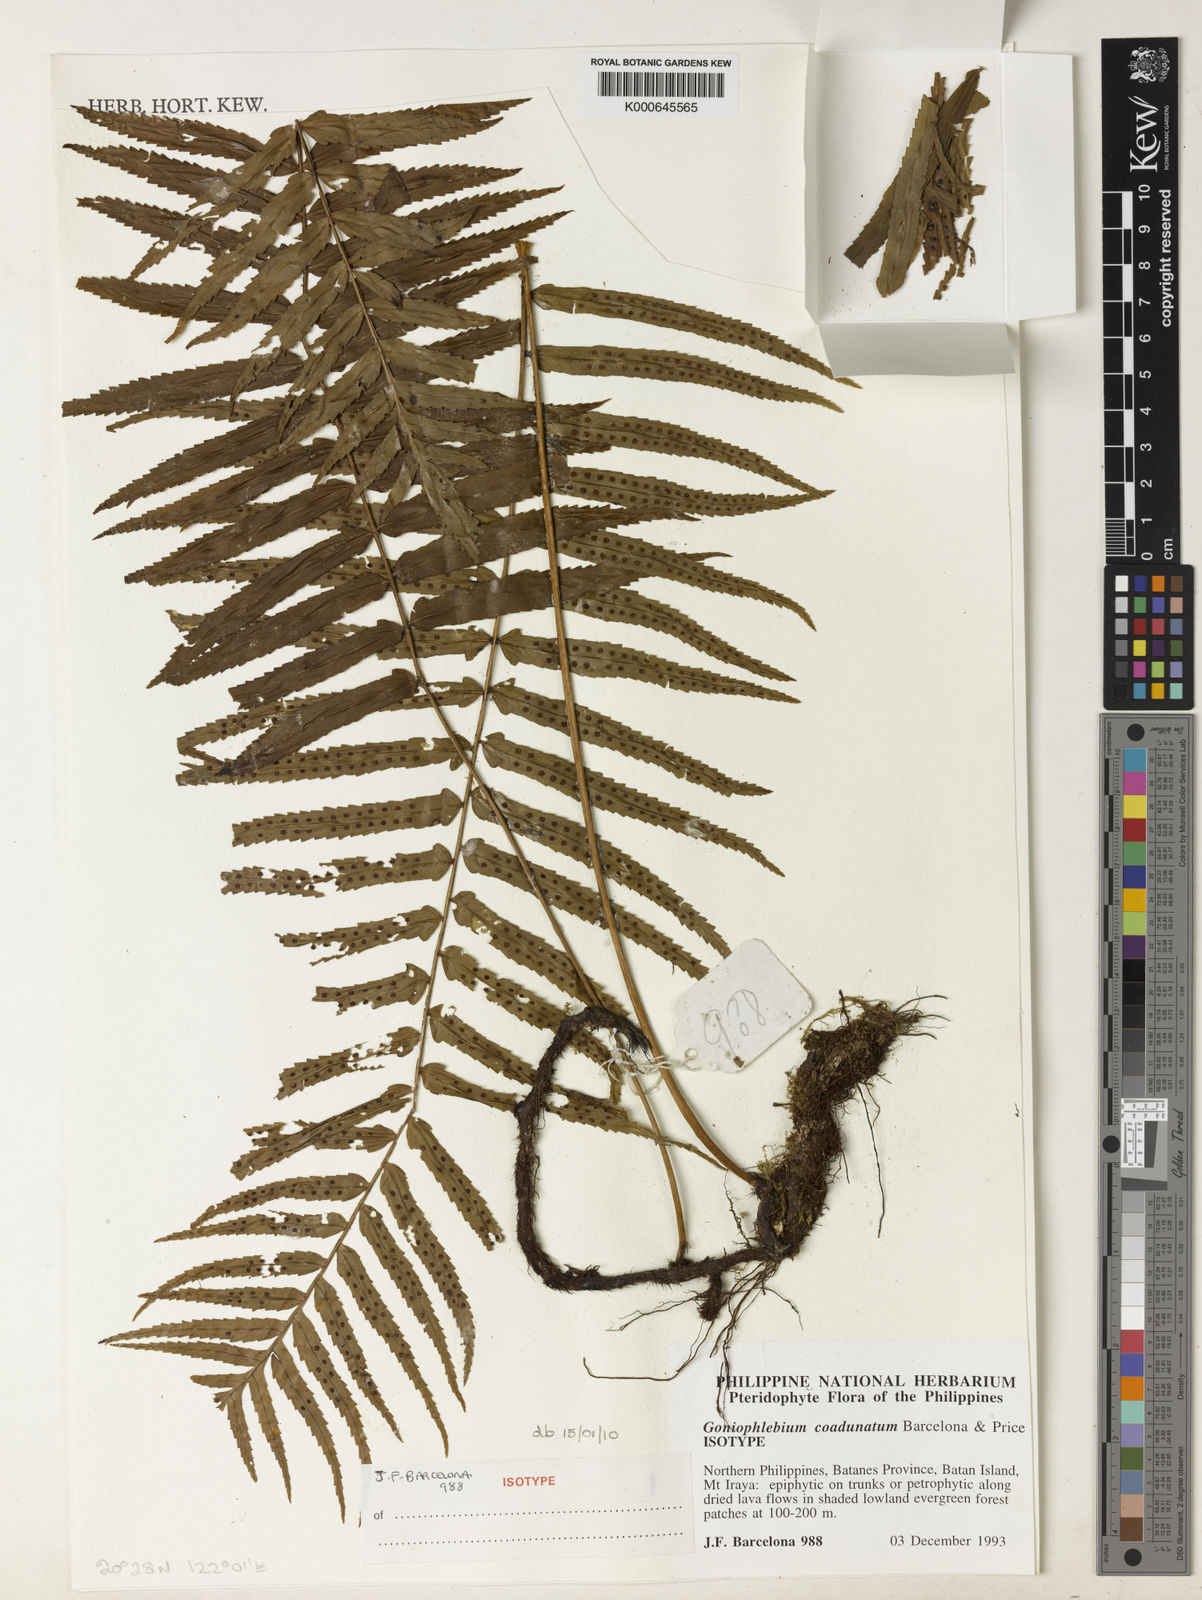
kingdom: Plantae
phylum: Tracheophyta
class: Polypodiopsida
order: Polypodiales
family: Polypodiaceae
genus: Polypodium
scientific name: Polypodium
